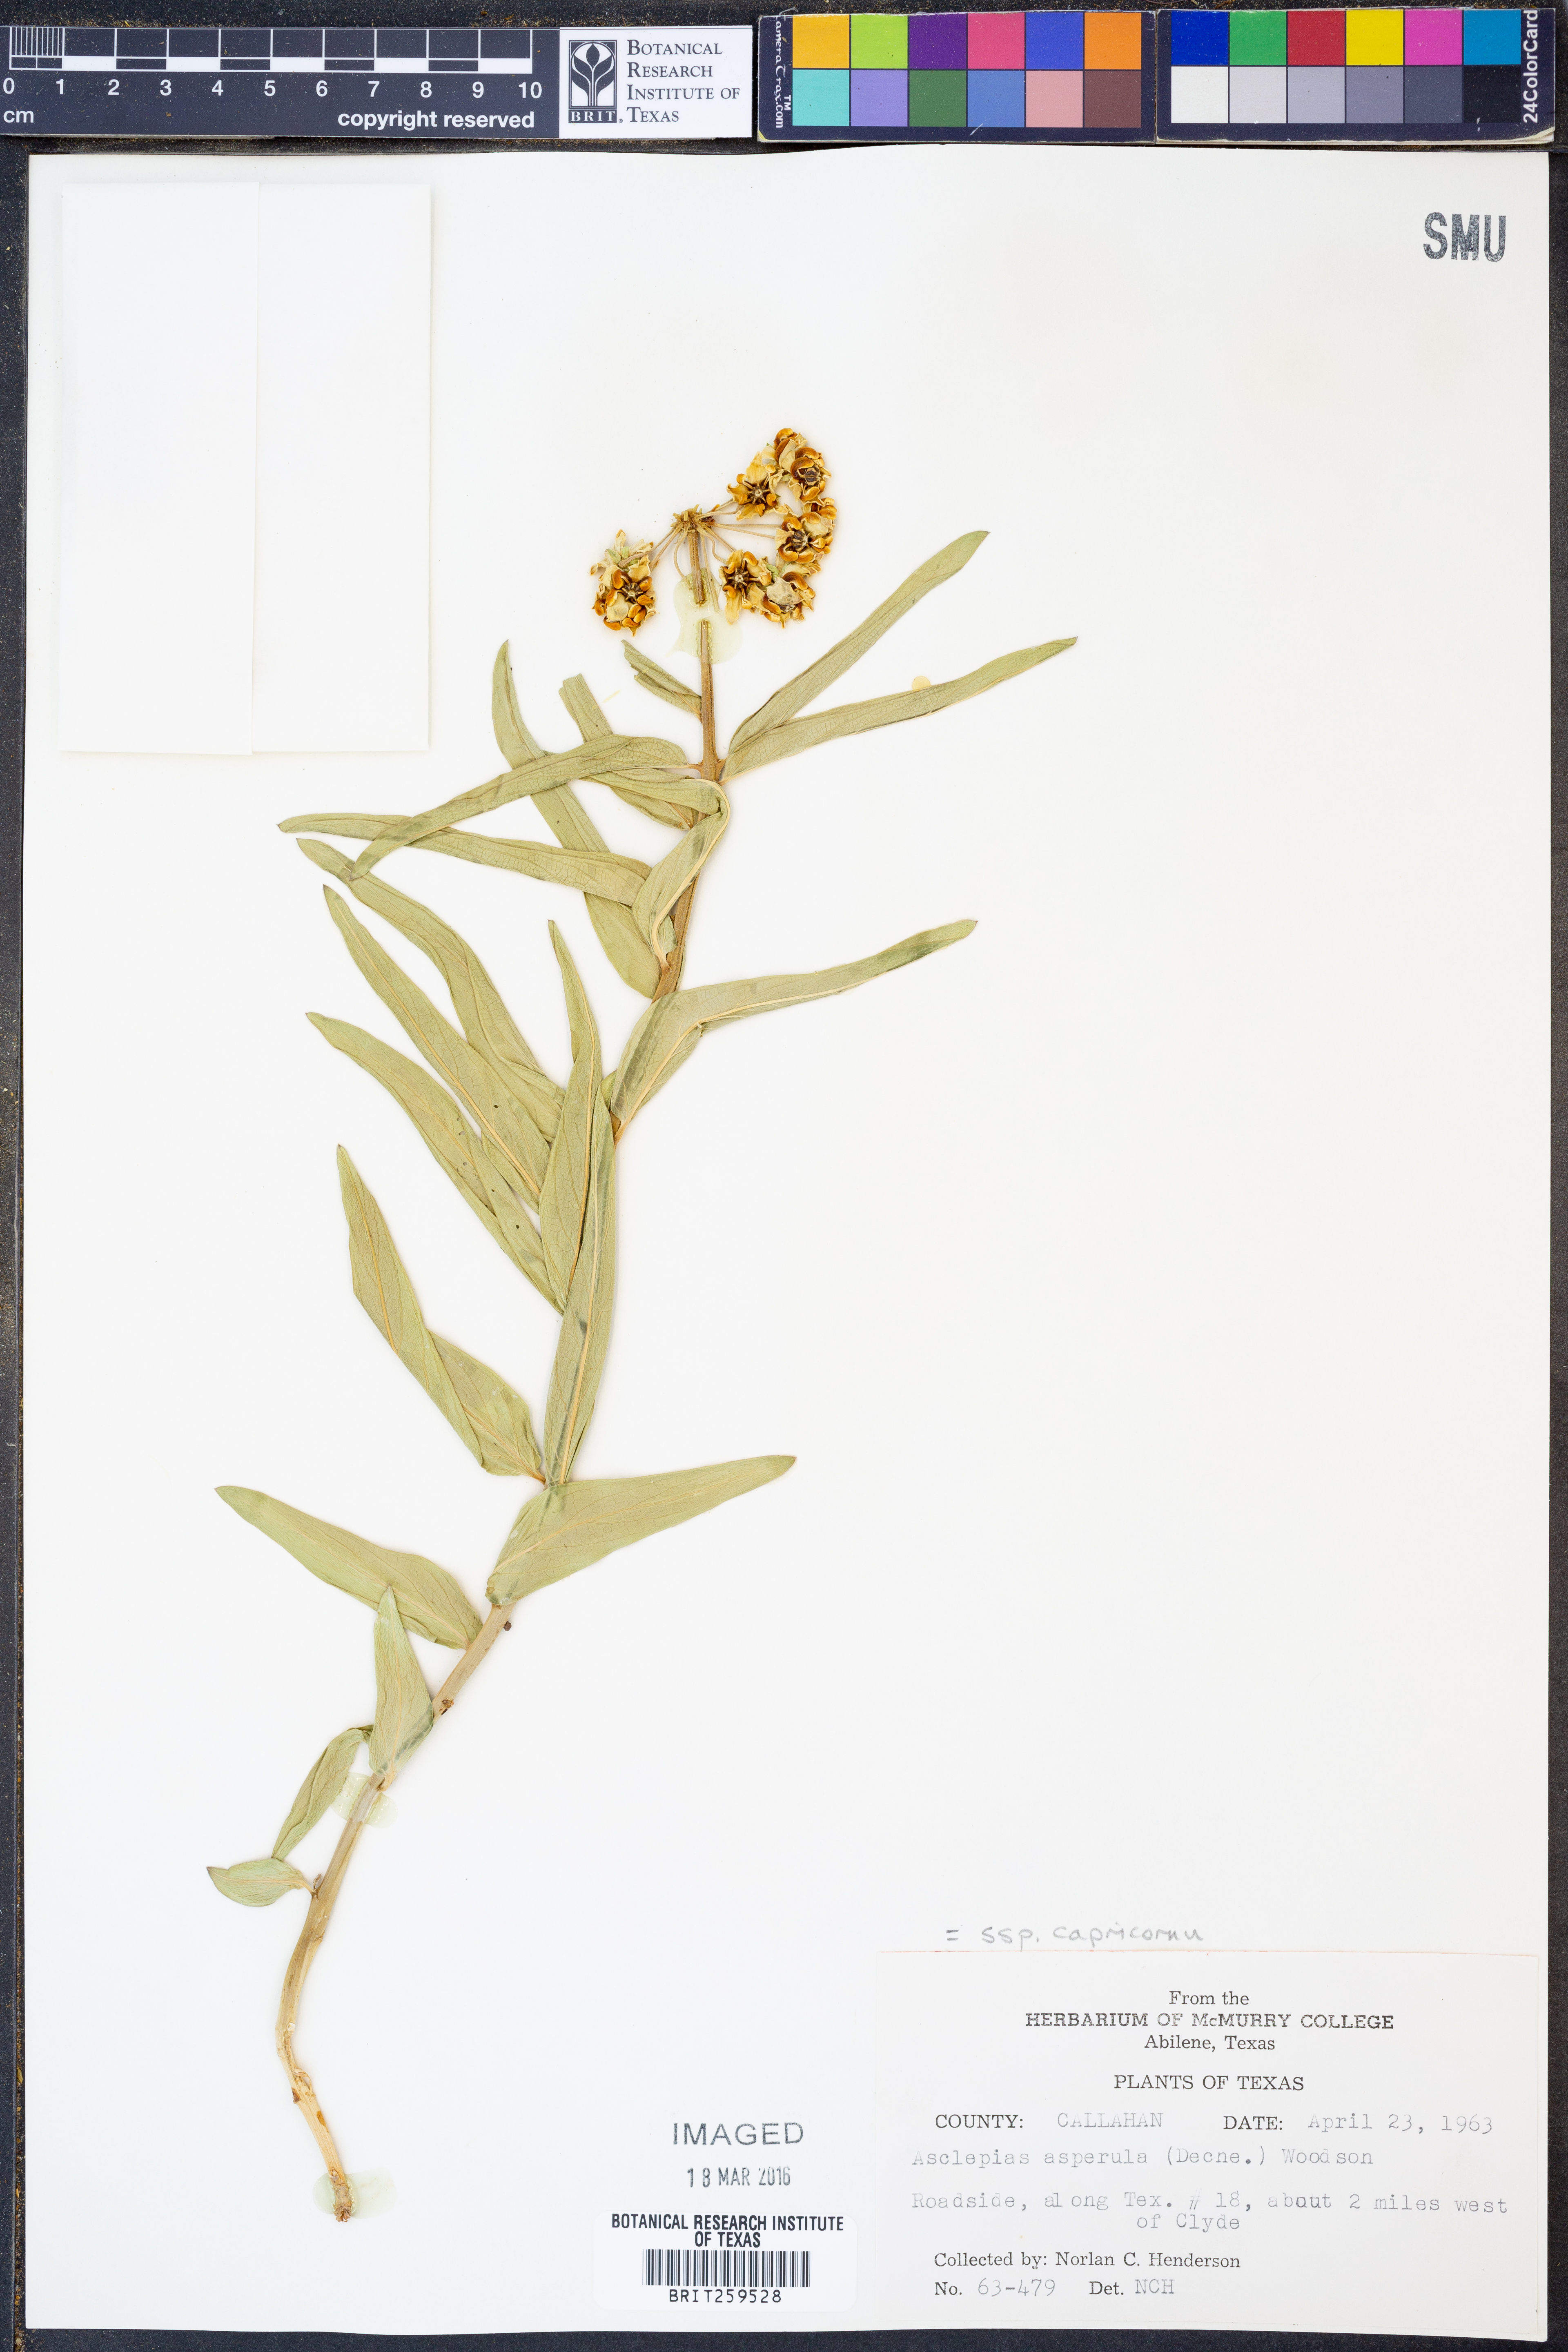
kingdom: Plantae
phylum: Tracheophyta
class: Magnoliopsida
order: Gentianales
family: Apocynaceae
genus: Asclepias
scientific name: Asclepias asperula
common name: Antelope horns
